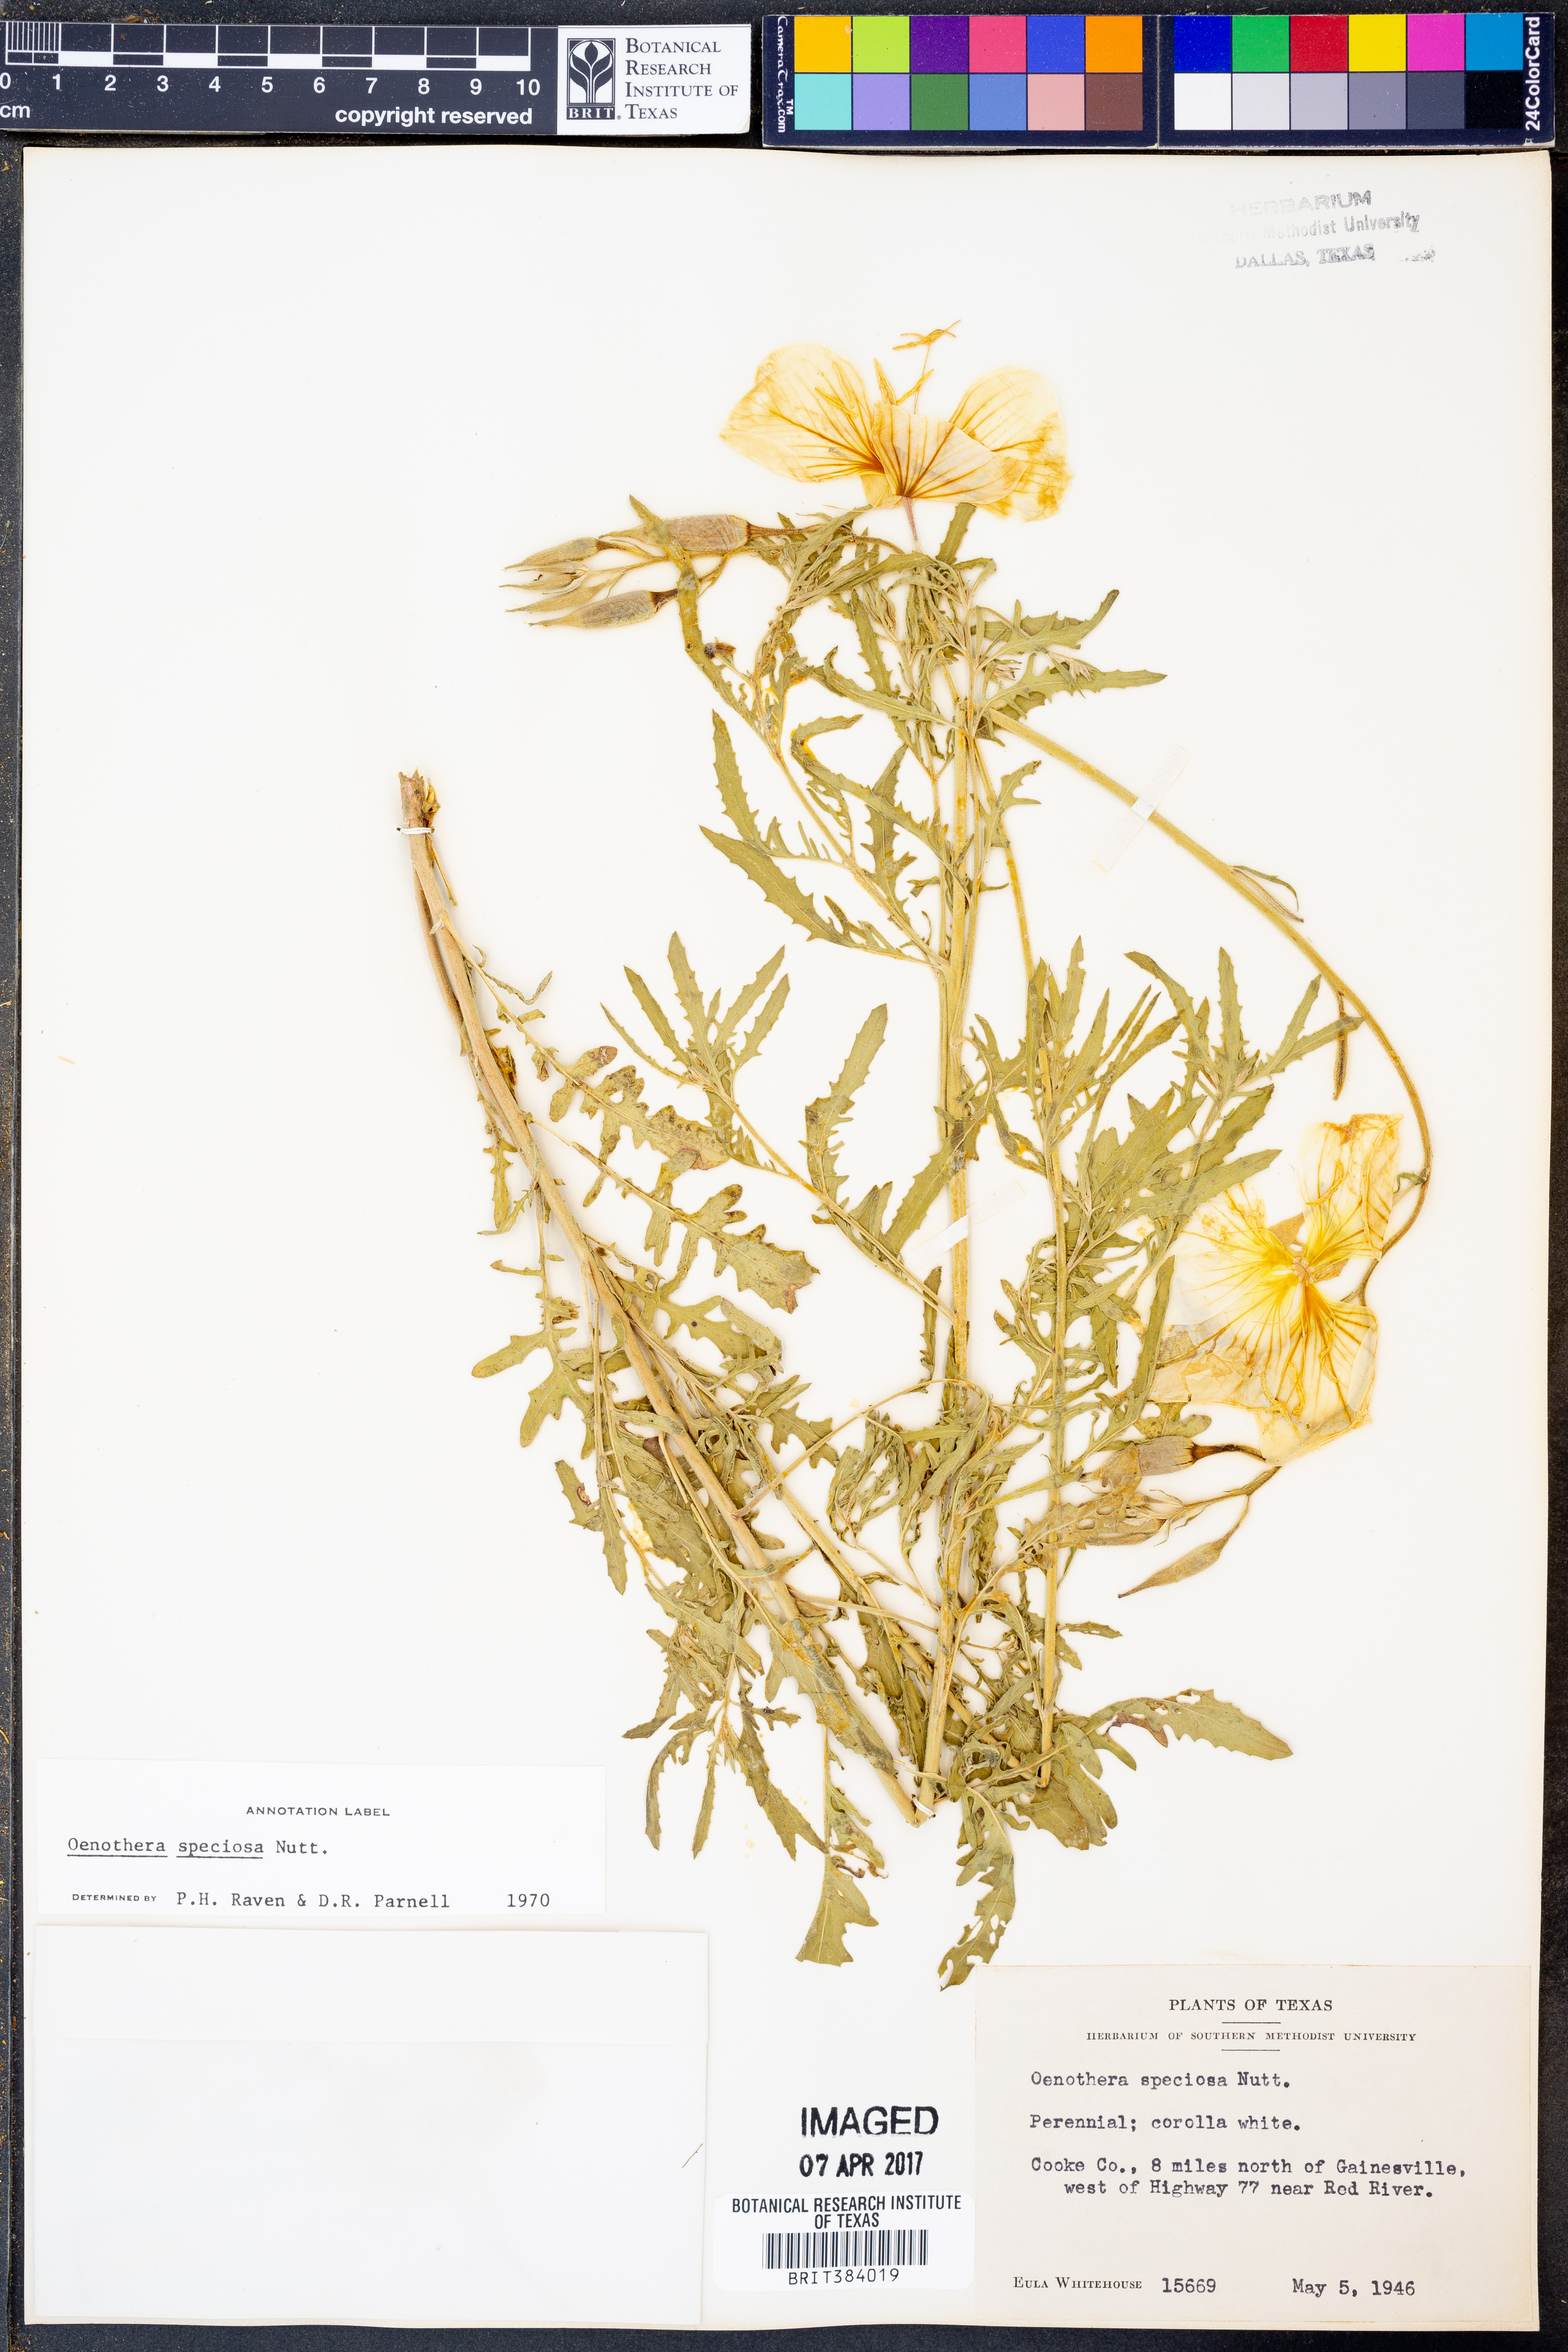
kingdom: Plantae
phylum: Tracheophyta
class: Magnoliopsida
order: Myrtales
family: Onagraceae
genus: Oenothera
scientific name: Oenothera speciosa
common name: White evening-primrose
